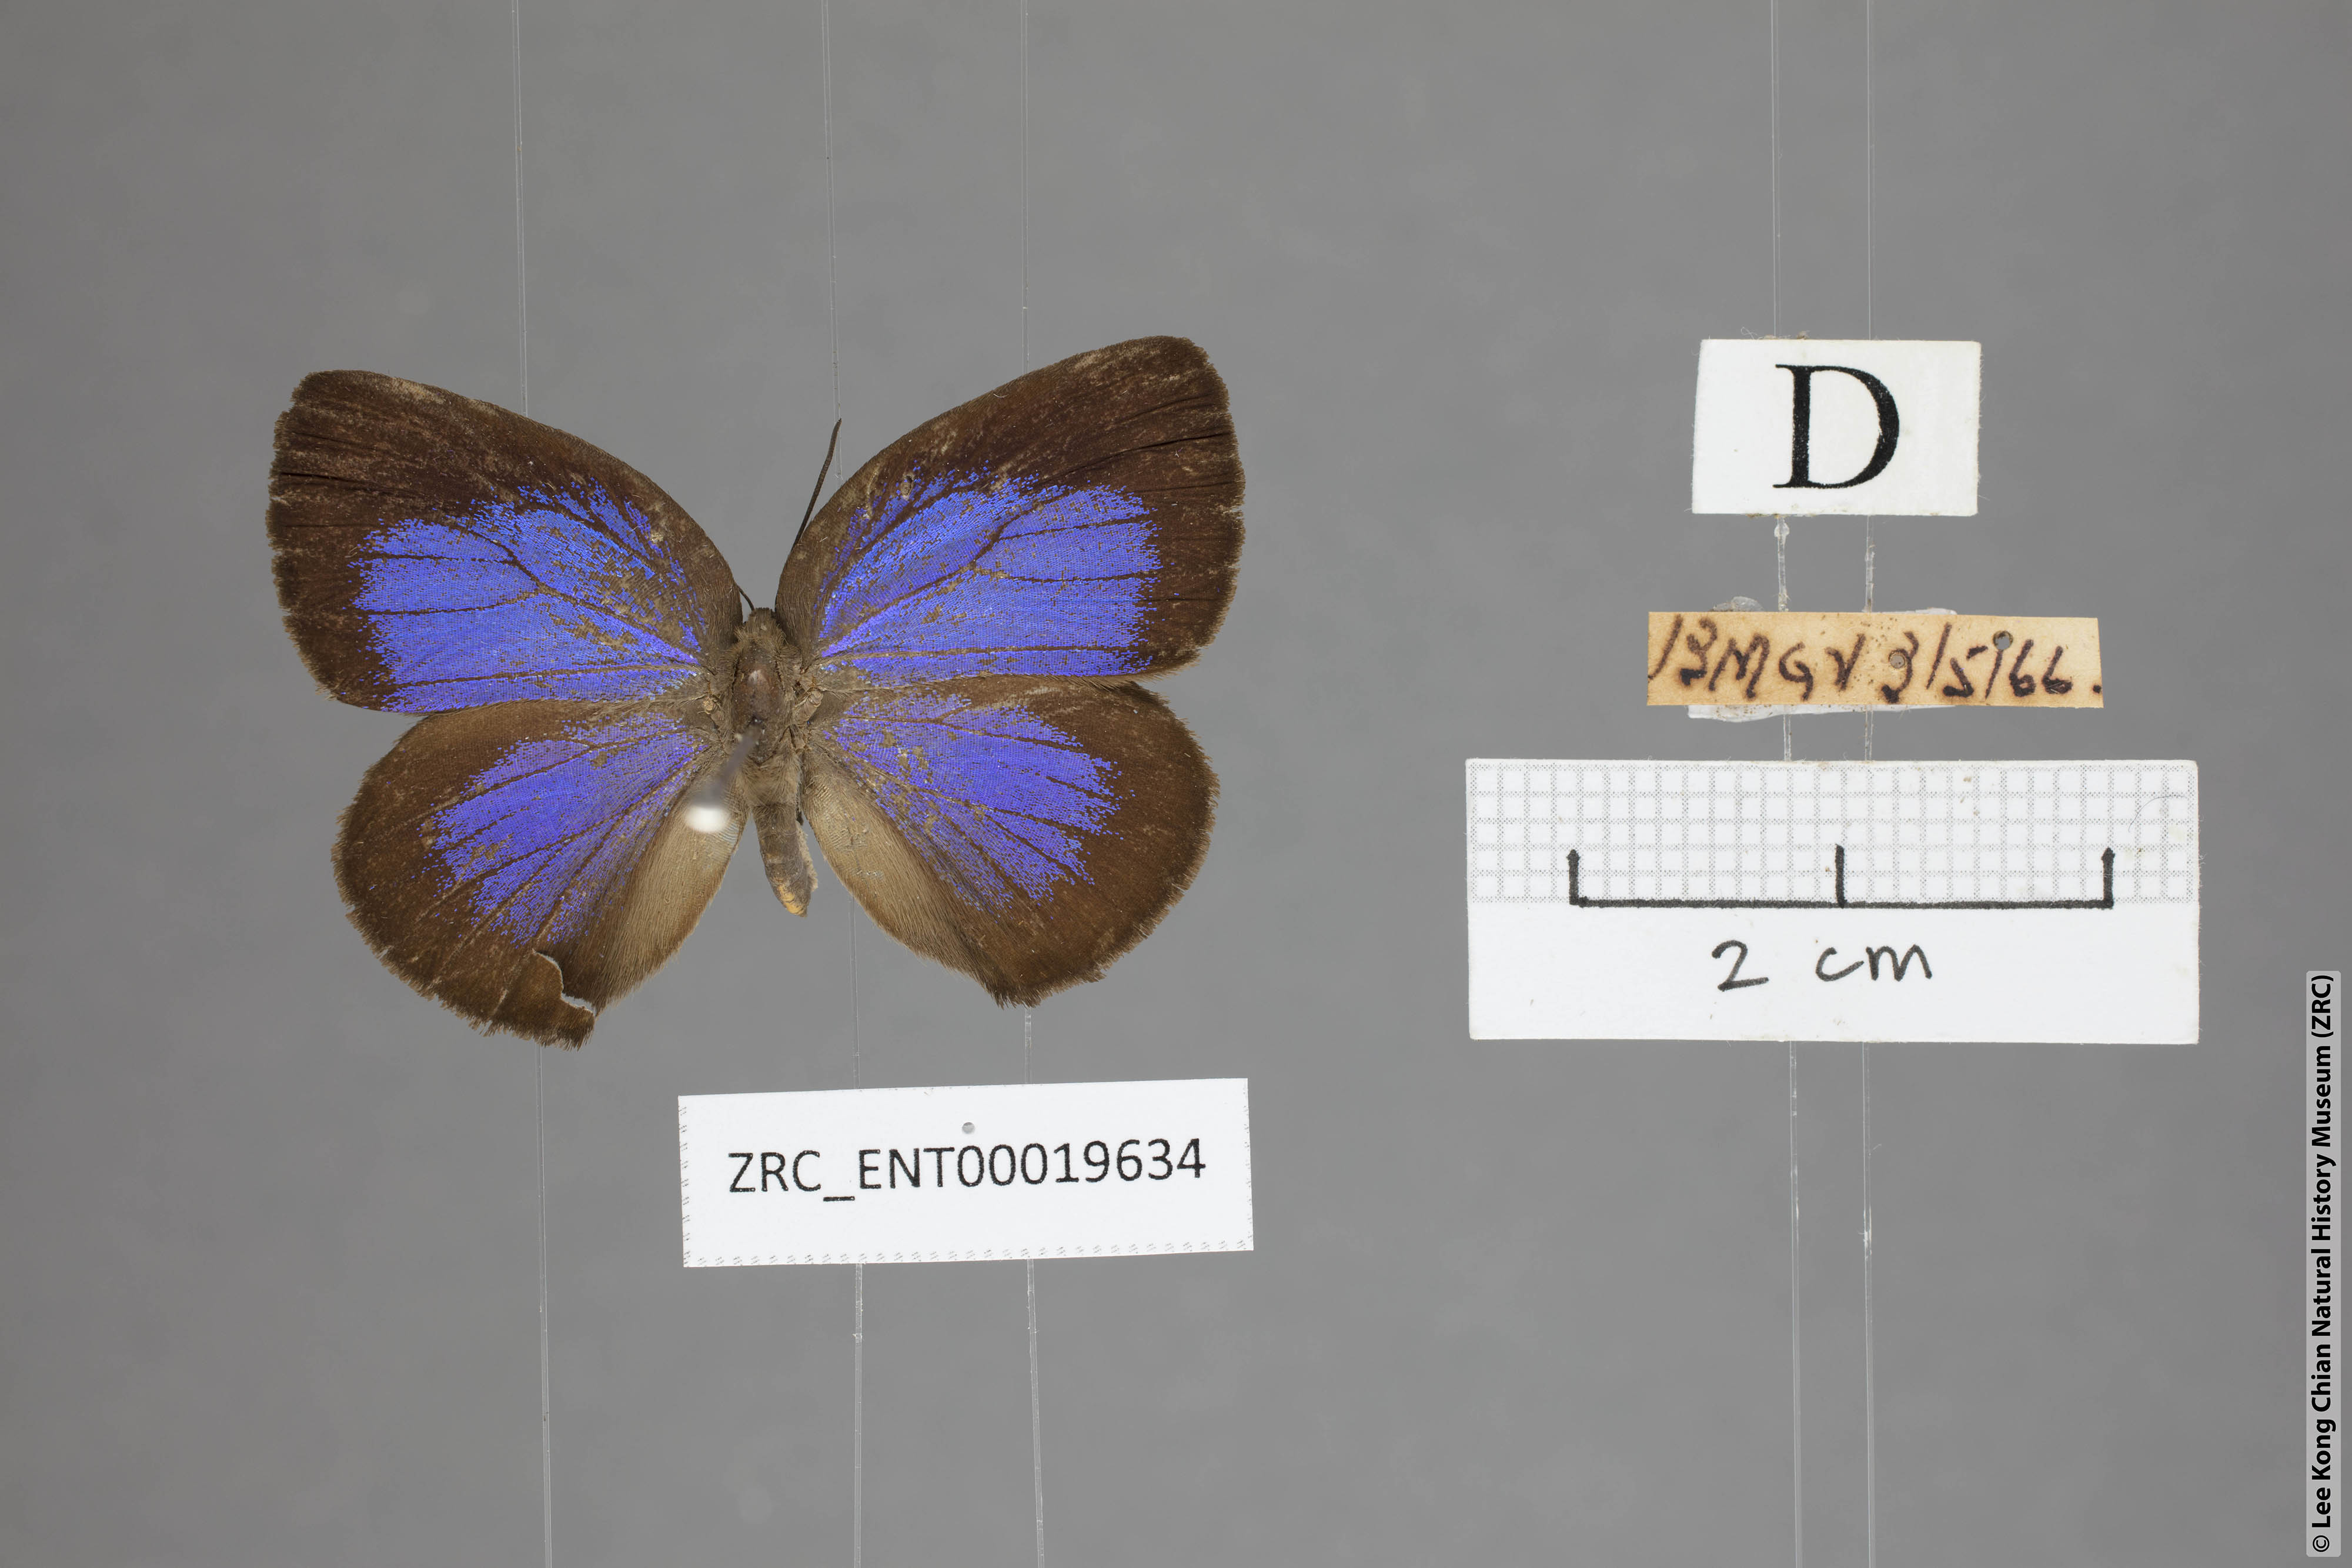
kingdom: Animalia
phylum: Arthropoda
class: Insecta
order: Lepidoptera
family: Lycaenidae
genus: Arhopala
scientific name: Arhopala major
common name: Major yellow oakblue
